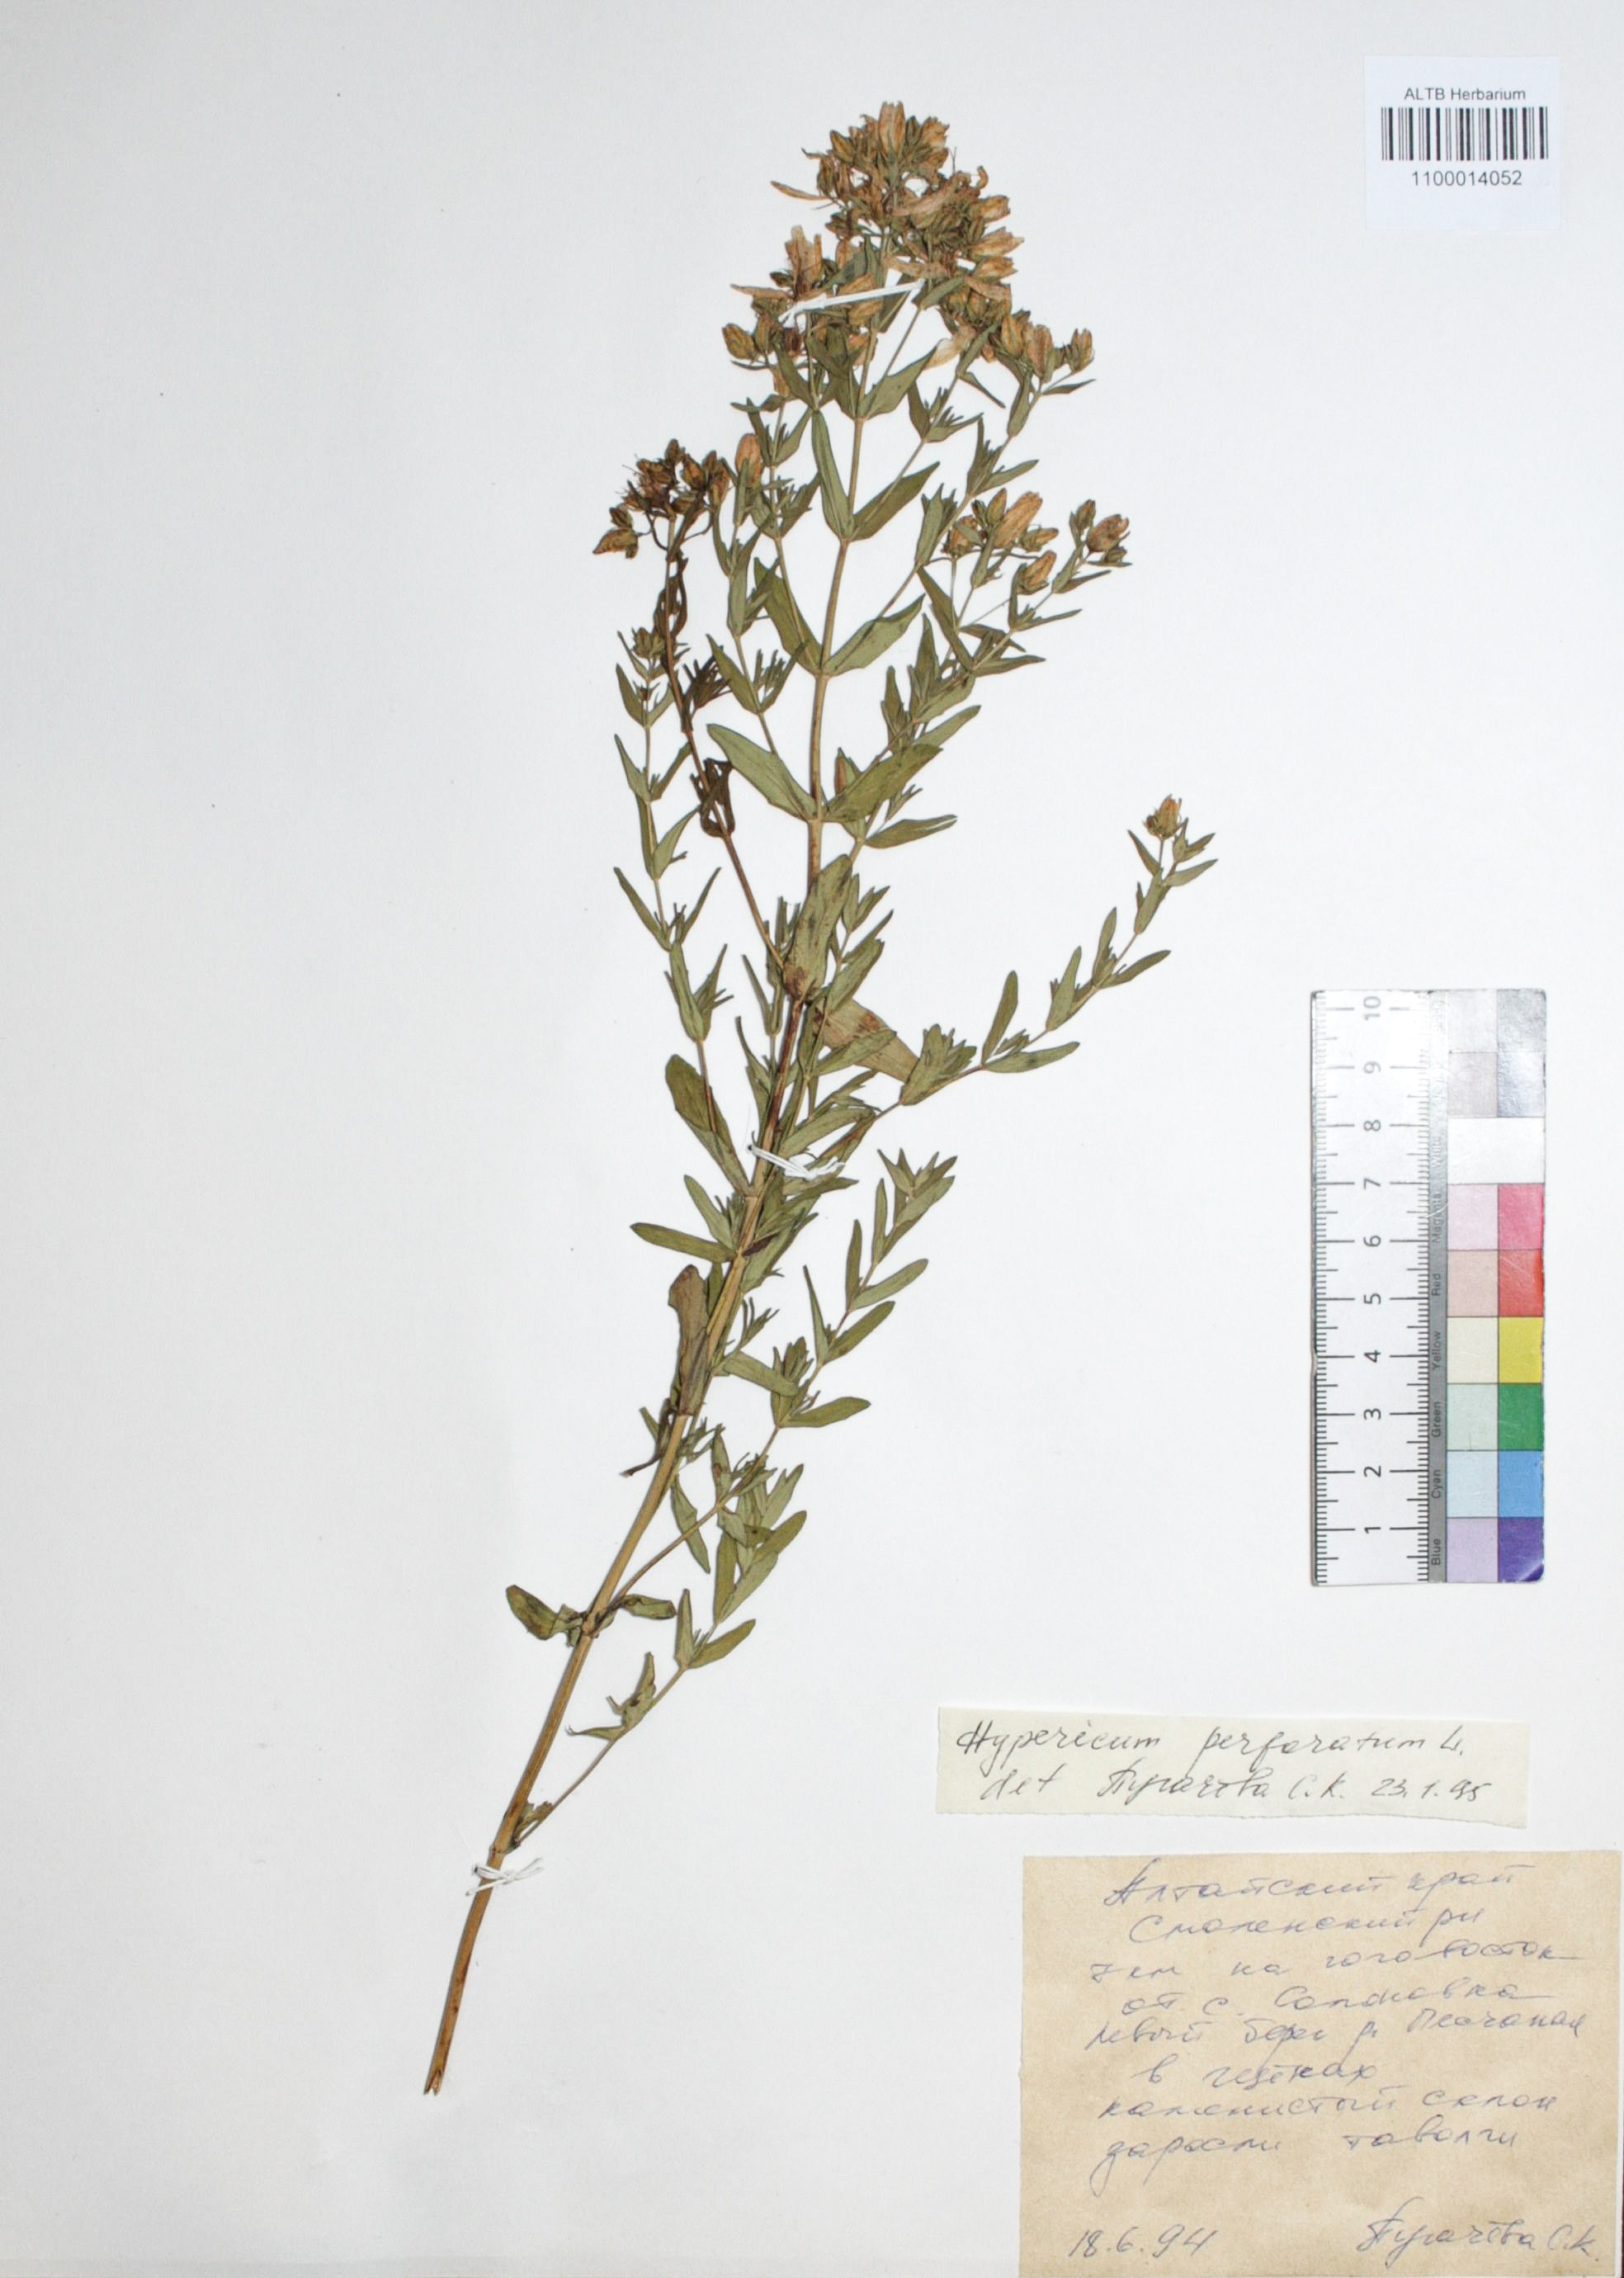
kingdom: Plantae
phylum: Tracheophyta
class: Magnoliopsida
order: Malpighiales
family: Hypericaceae
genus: Hypericum
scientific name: Hypericum perforatum
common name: Common st. johnswort
